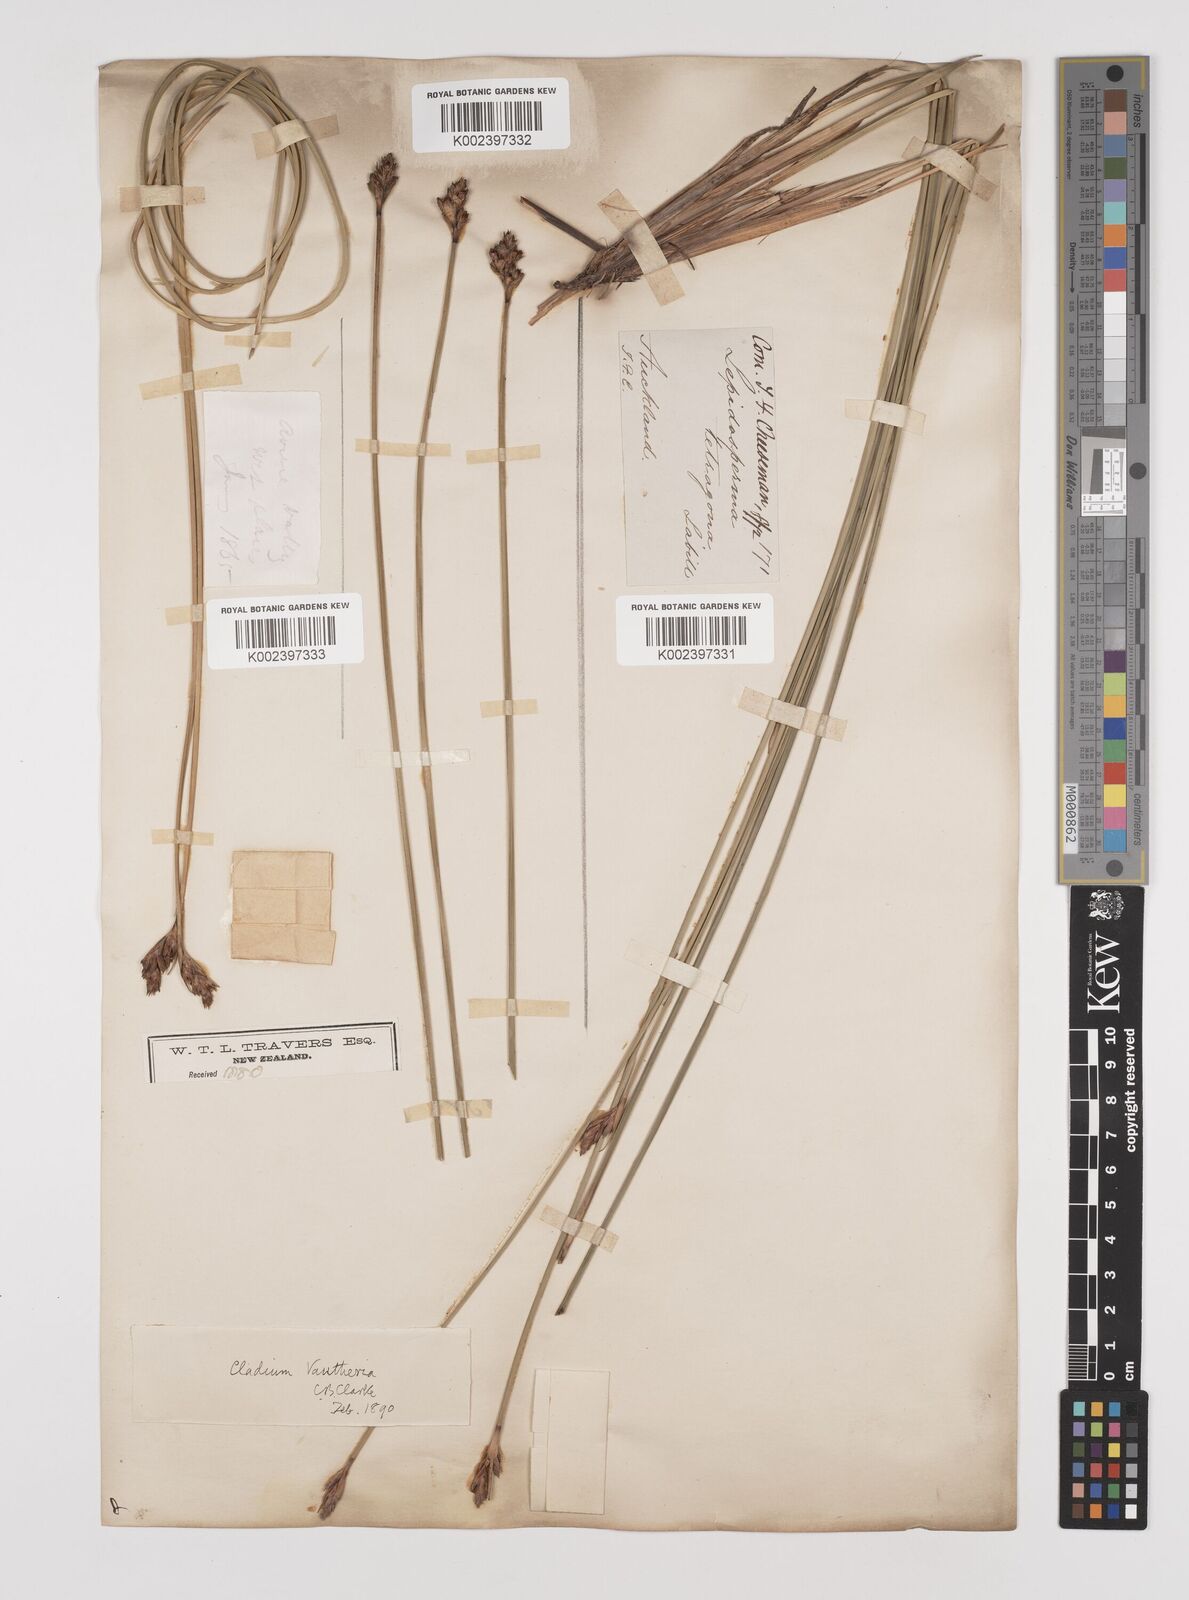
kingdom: Plantae
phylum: Tracheophyta
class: Liliopsida
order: Poales
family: Cyperaceae
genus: Lepidosperma
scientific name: Lepidosperma australe
